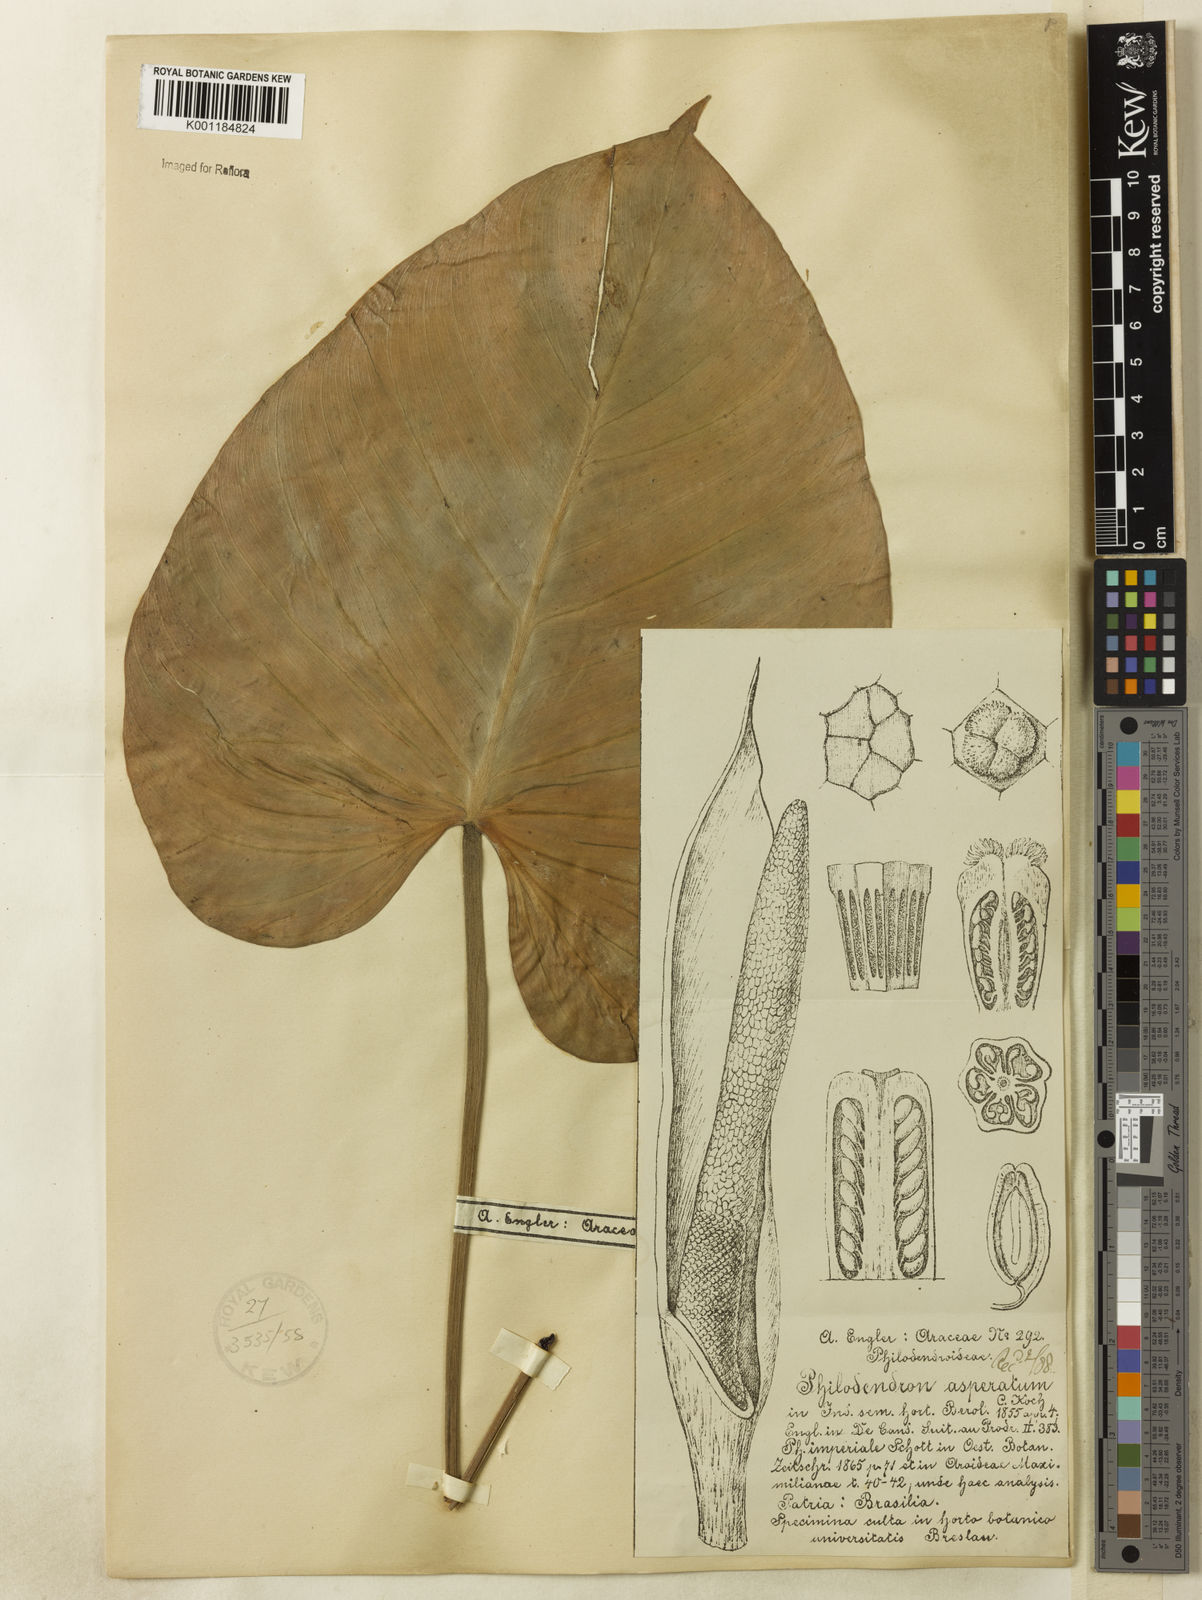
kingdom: Plantae
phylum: Tracheophyta
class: Liliopsida
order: Alismatales
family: Araceae
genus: Philodendron
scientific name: Philodendron ornatum
